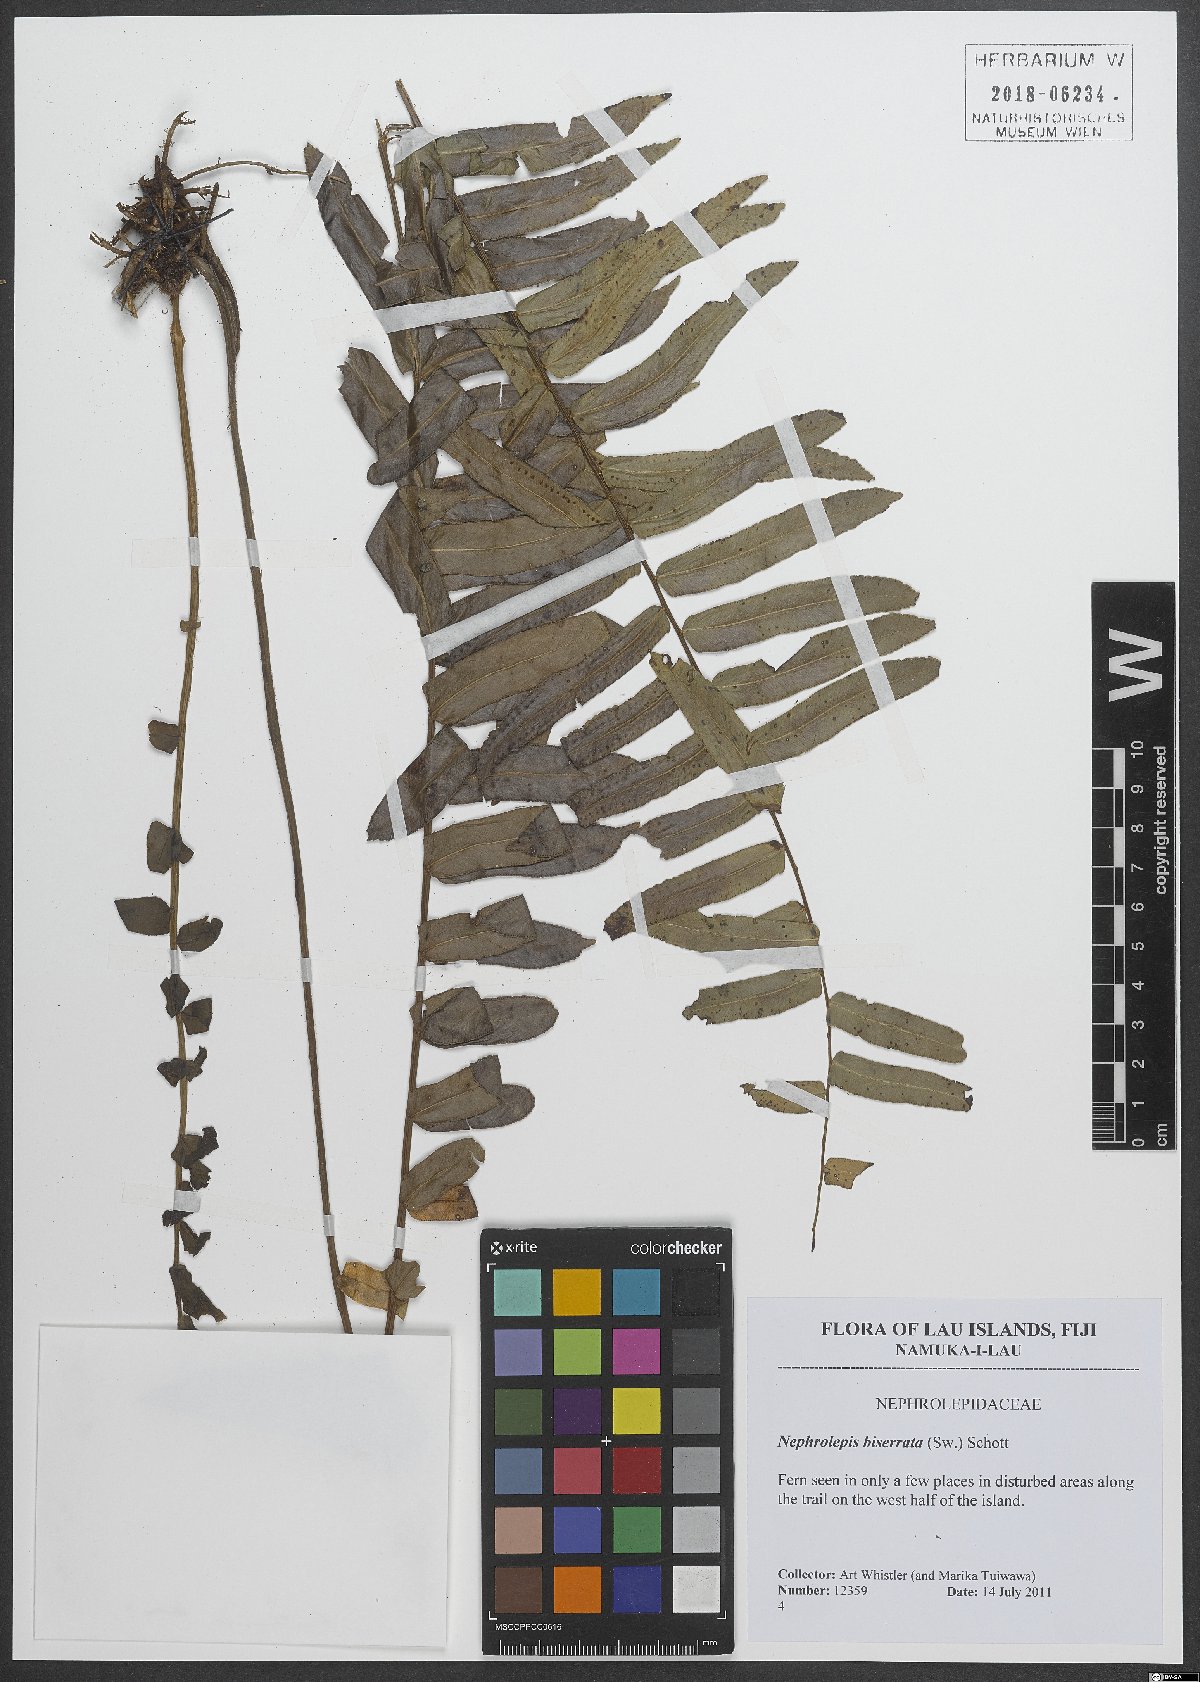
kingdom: Plantae
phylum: Tracheophyta
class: Polypodiopsida
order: Polypodiales
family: Nephrolepidaceae
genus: Nephrolepis
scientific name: Nephrolepis biserrata
